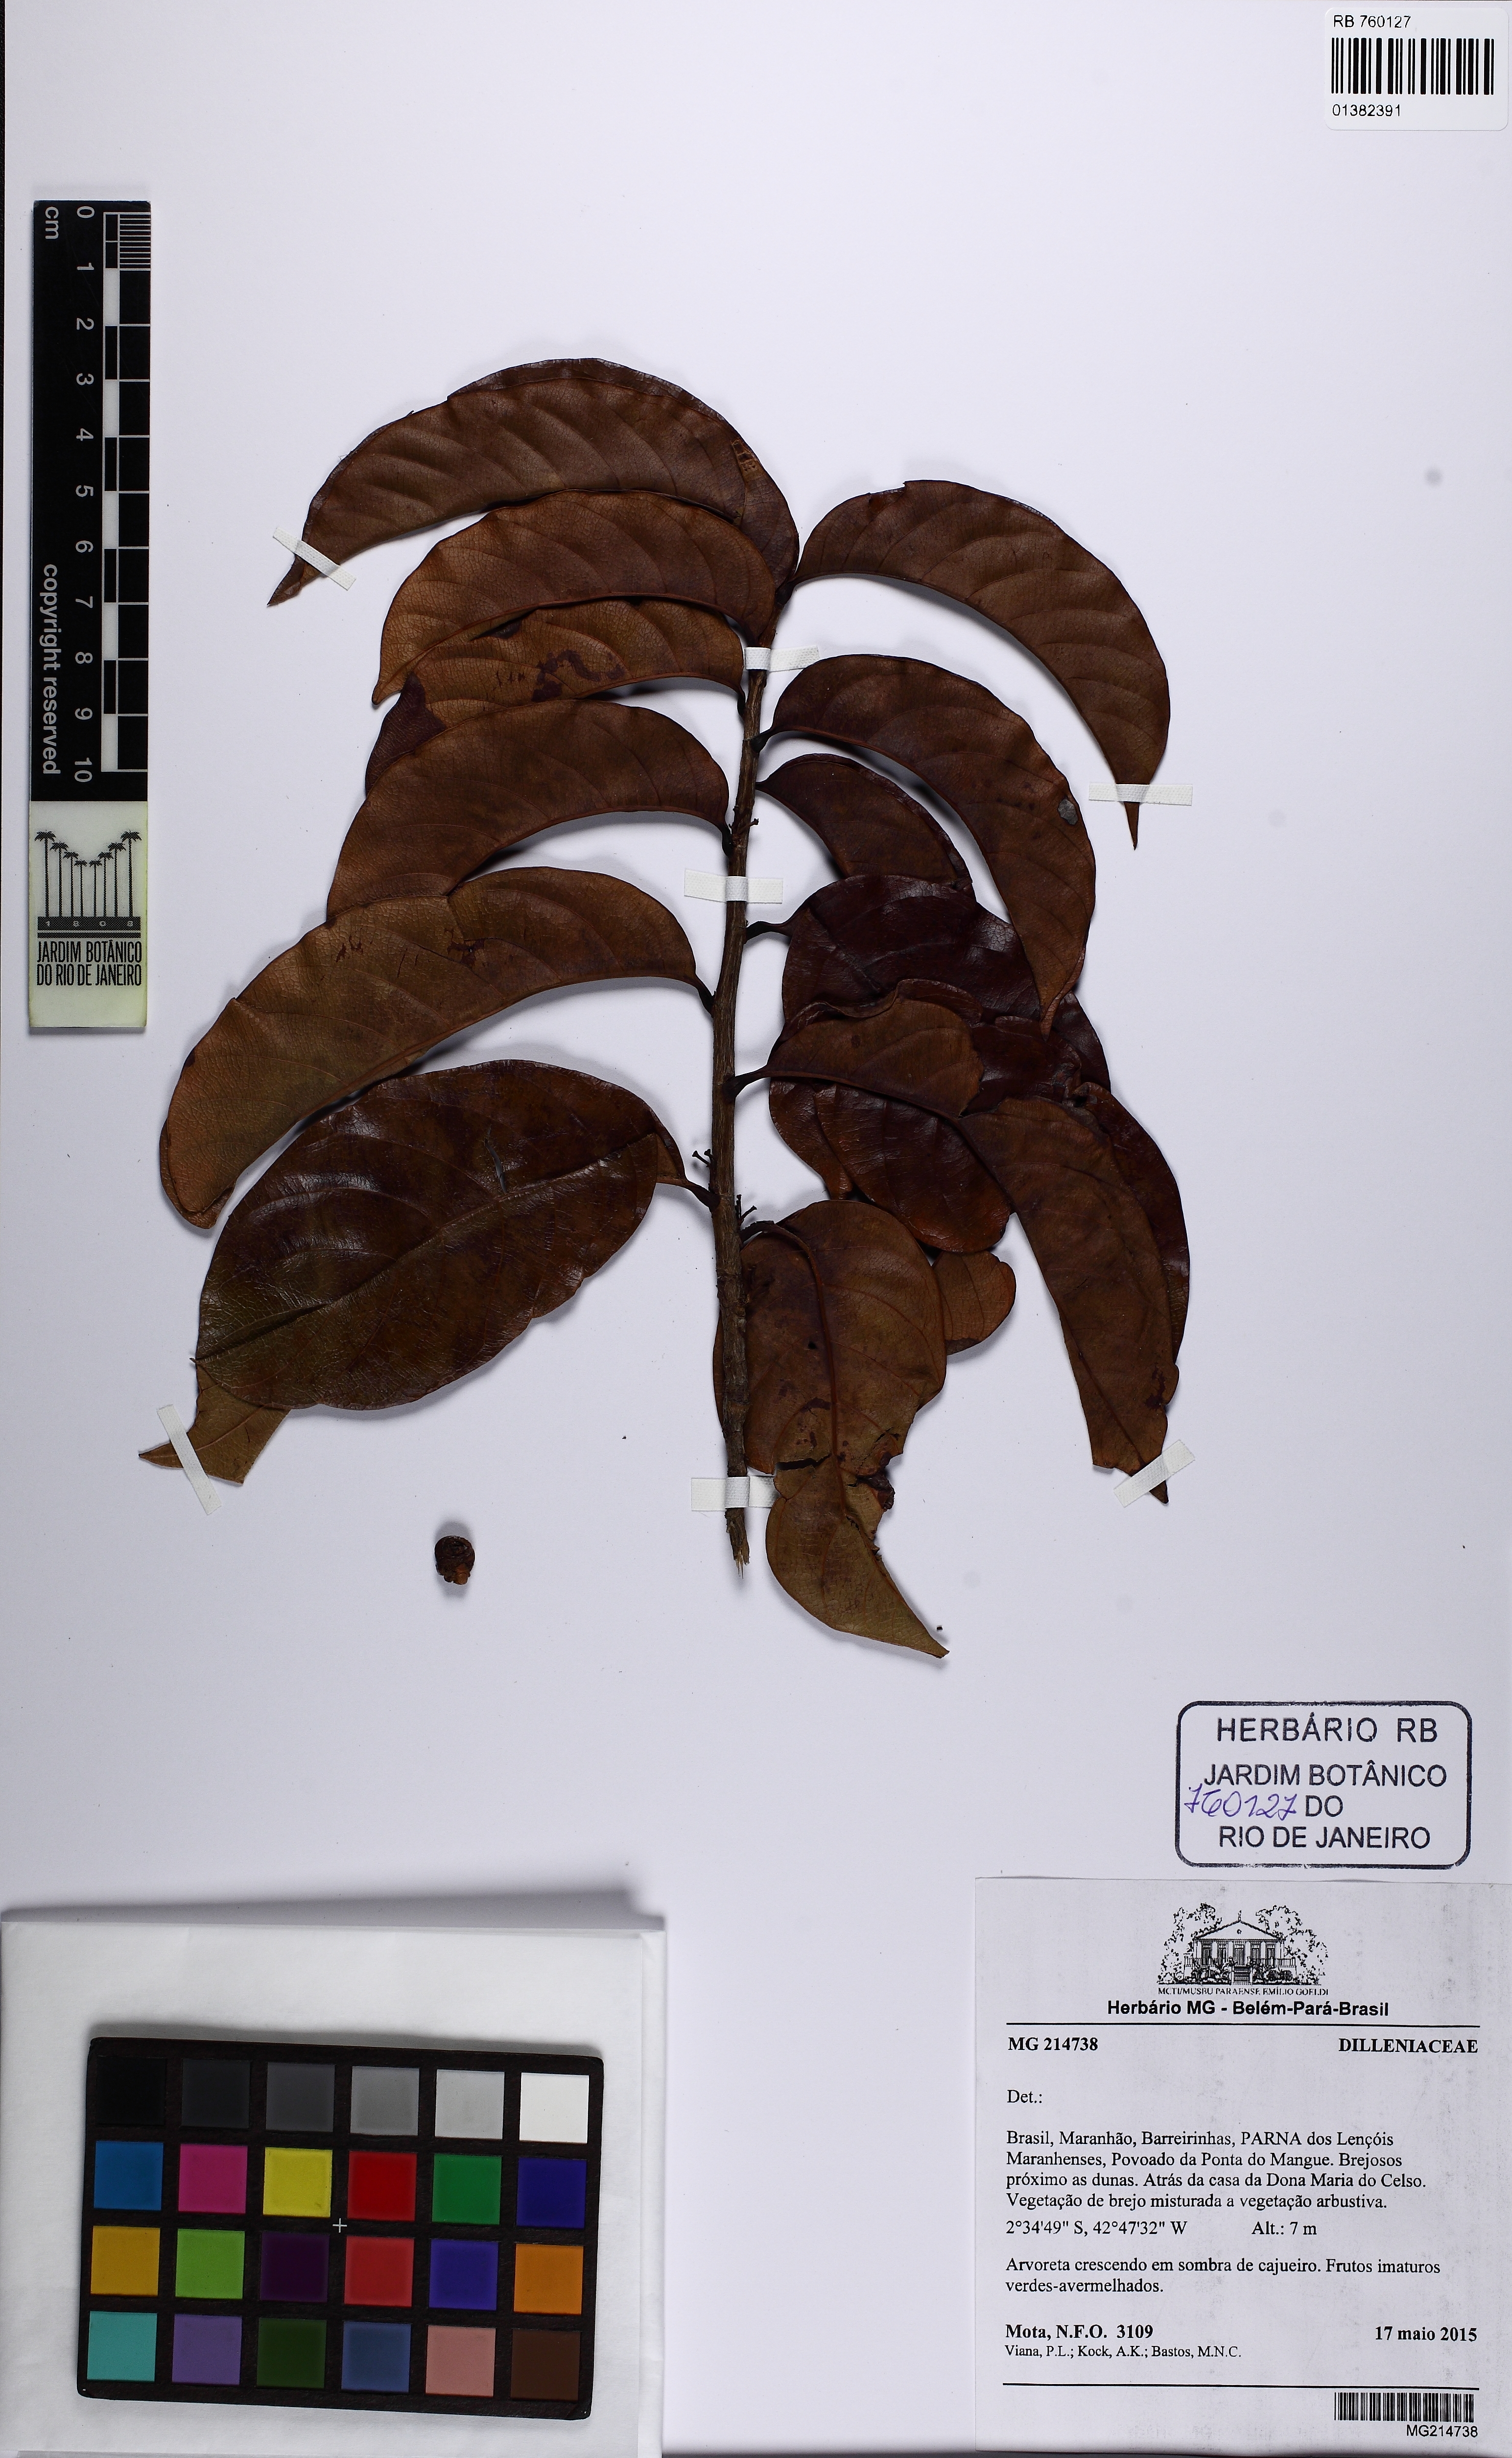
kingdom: Plantae
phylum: Tracheophyta
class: Magnoliopsida
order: Dilleniales
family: Dilleniaceae
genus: Doliocarpus
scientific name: Doliocarpus spraguei
